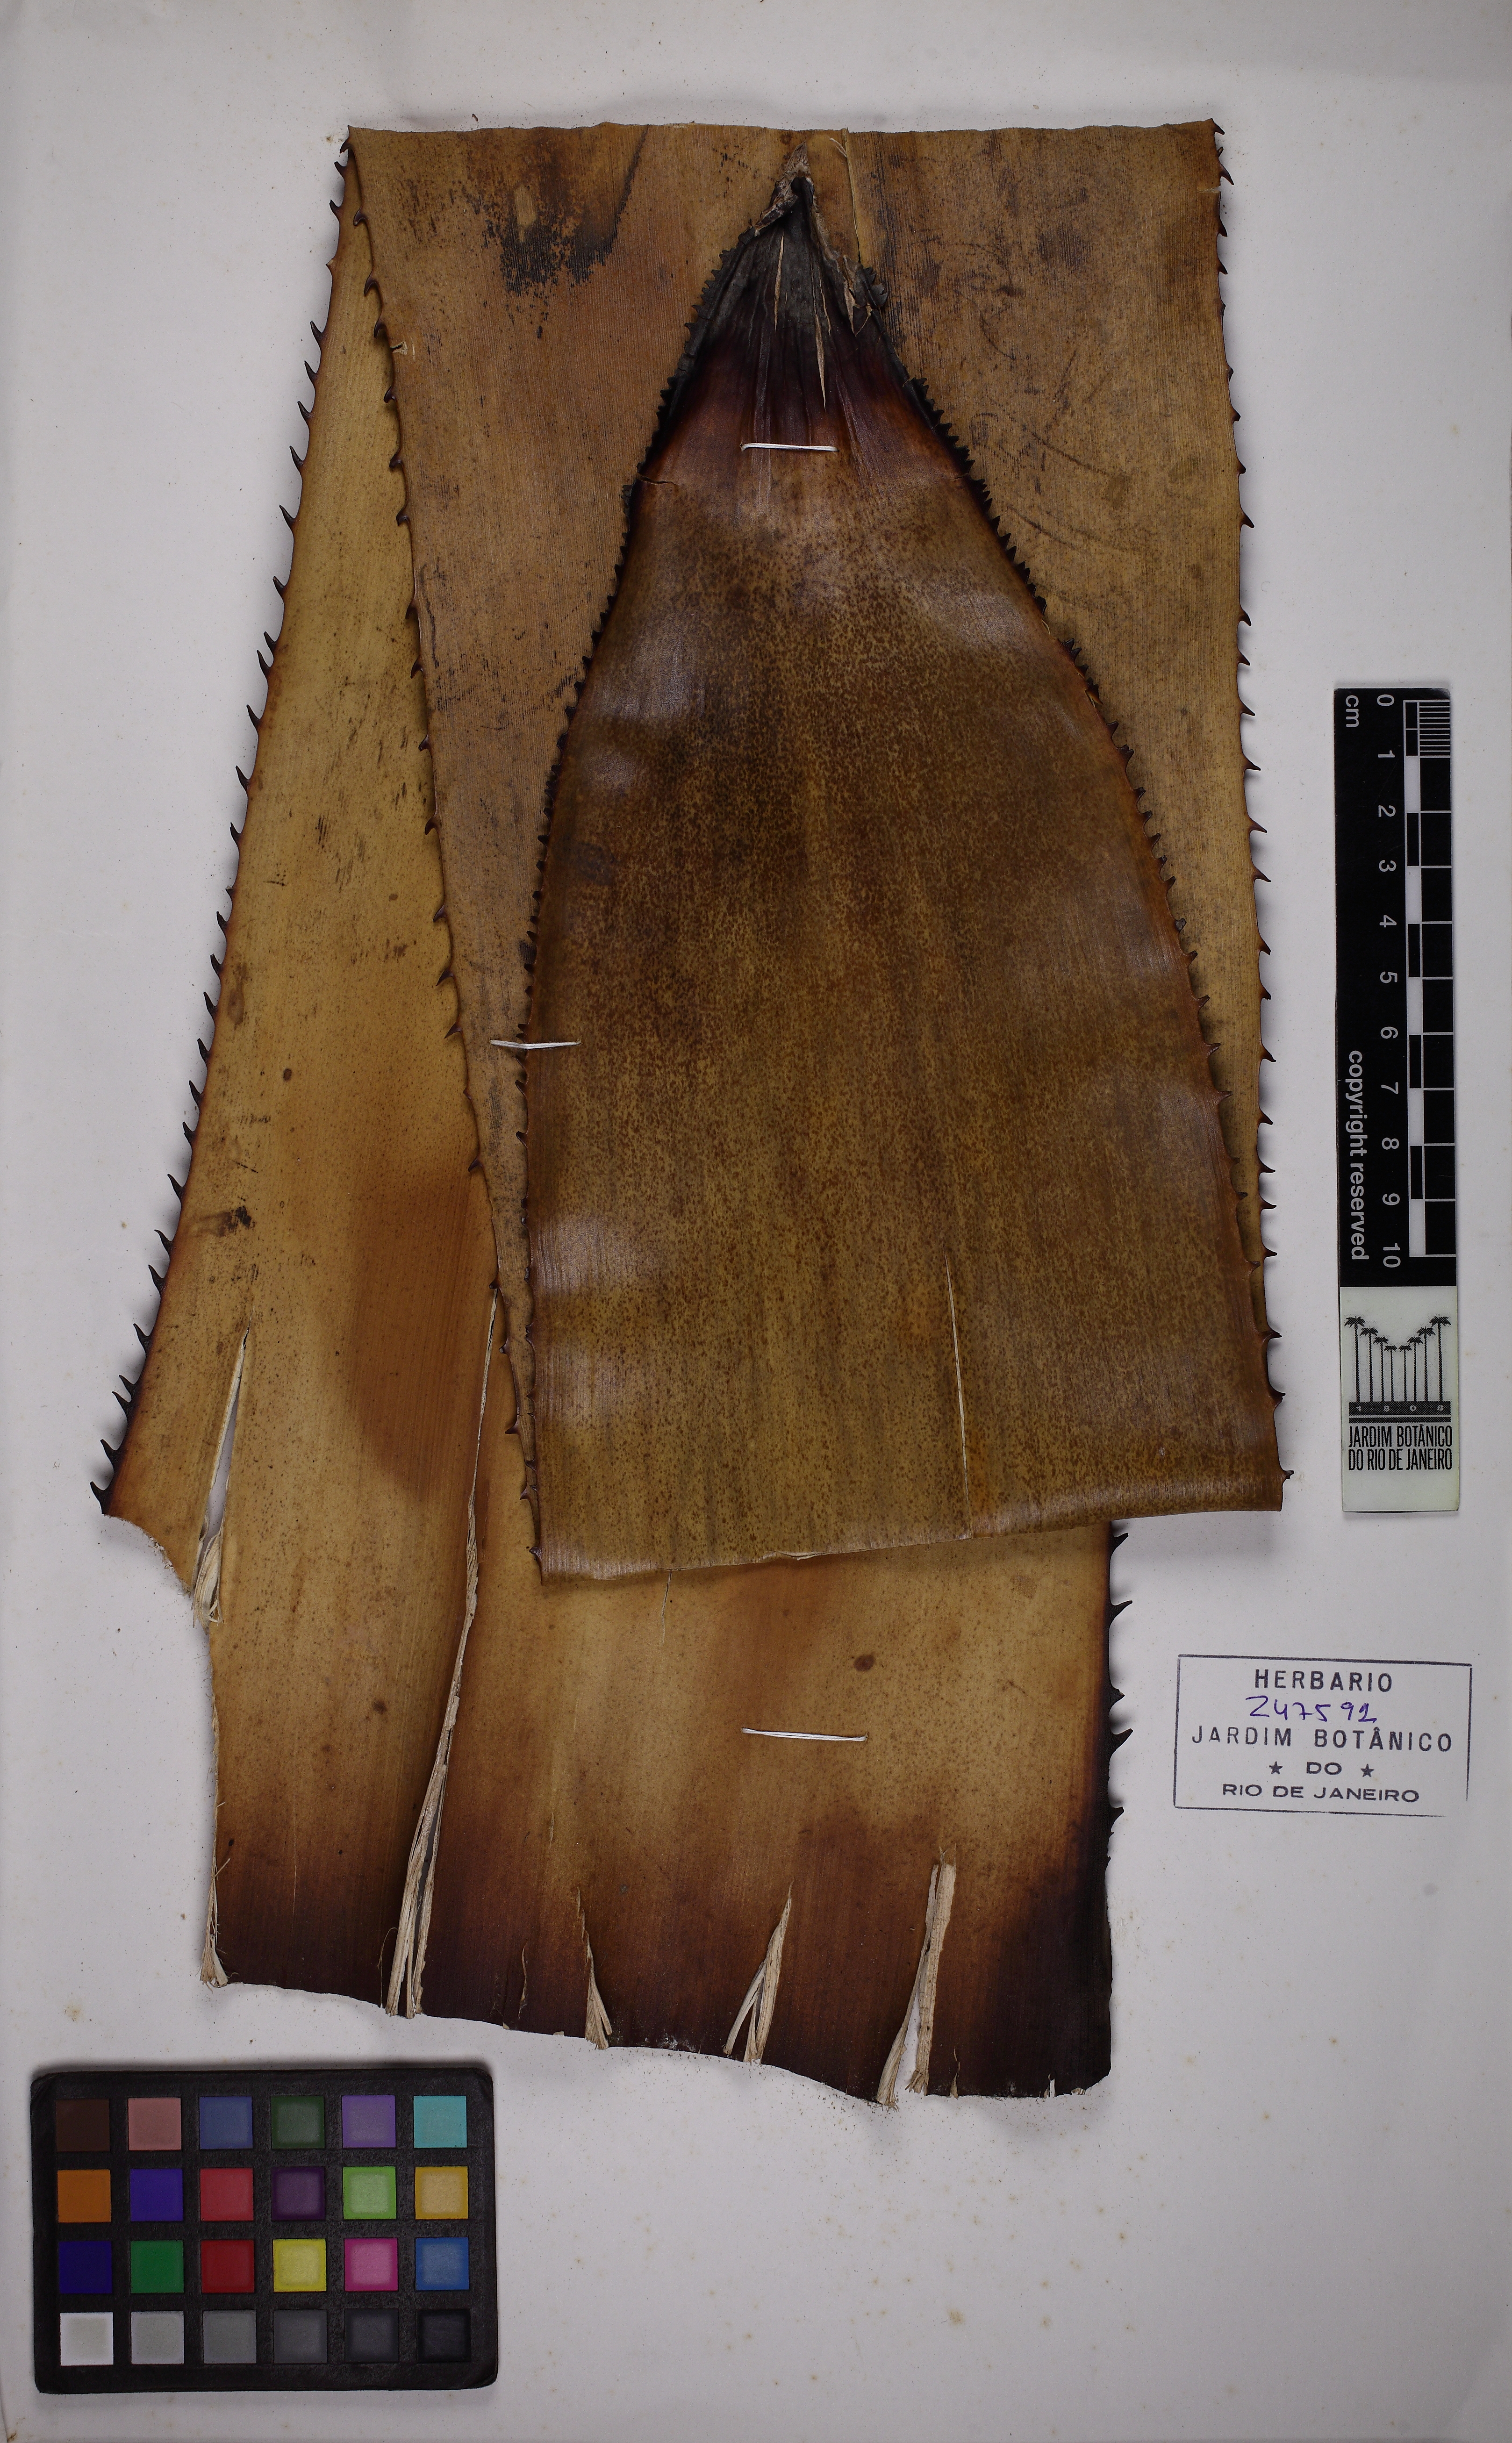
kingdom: Plantae
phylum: Tracheophyta
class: Liliopsida
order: Poales
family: Bromeliaceae
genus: Hohenbergia
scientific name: Hohenbergia pabstii
